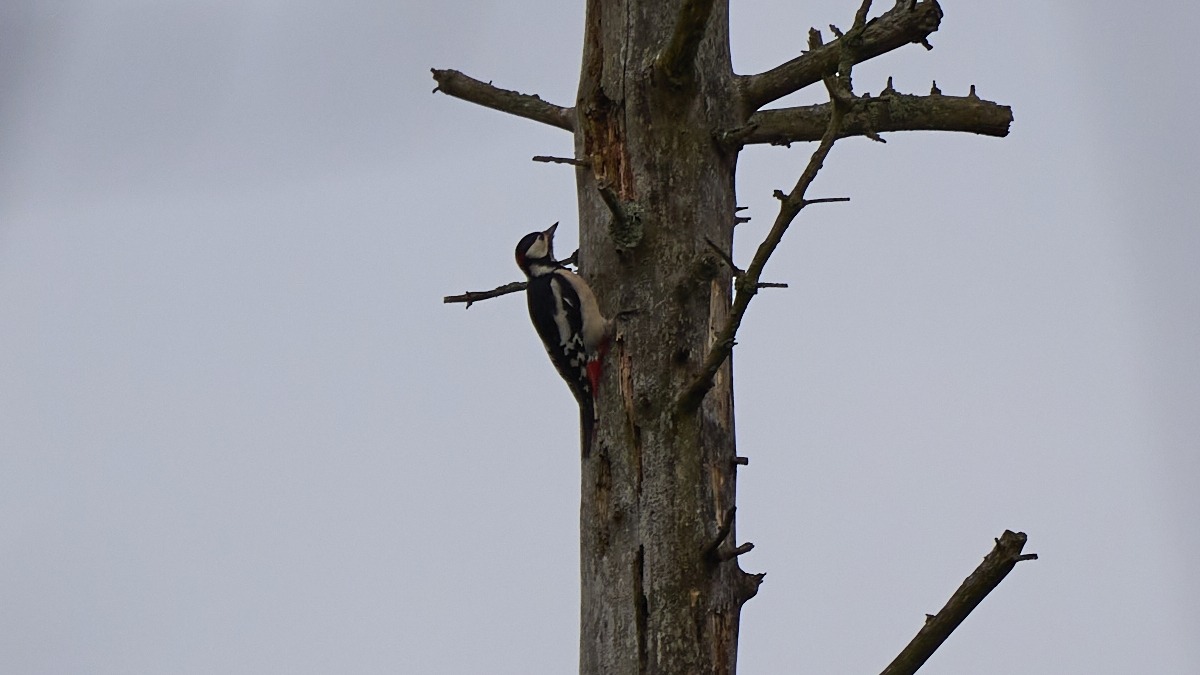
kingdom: Animalia
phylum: Chordata
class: Aves
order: Piciformes
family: Picidae
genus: Dendrocopos
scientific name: Dendrocopos major
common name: Stor flagspætte
